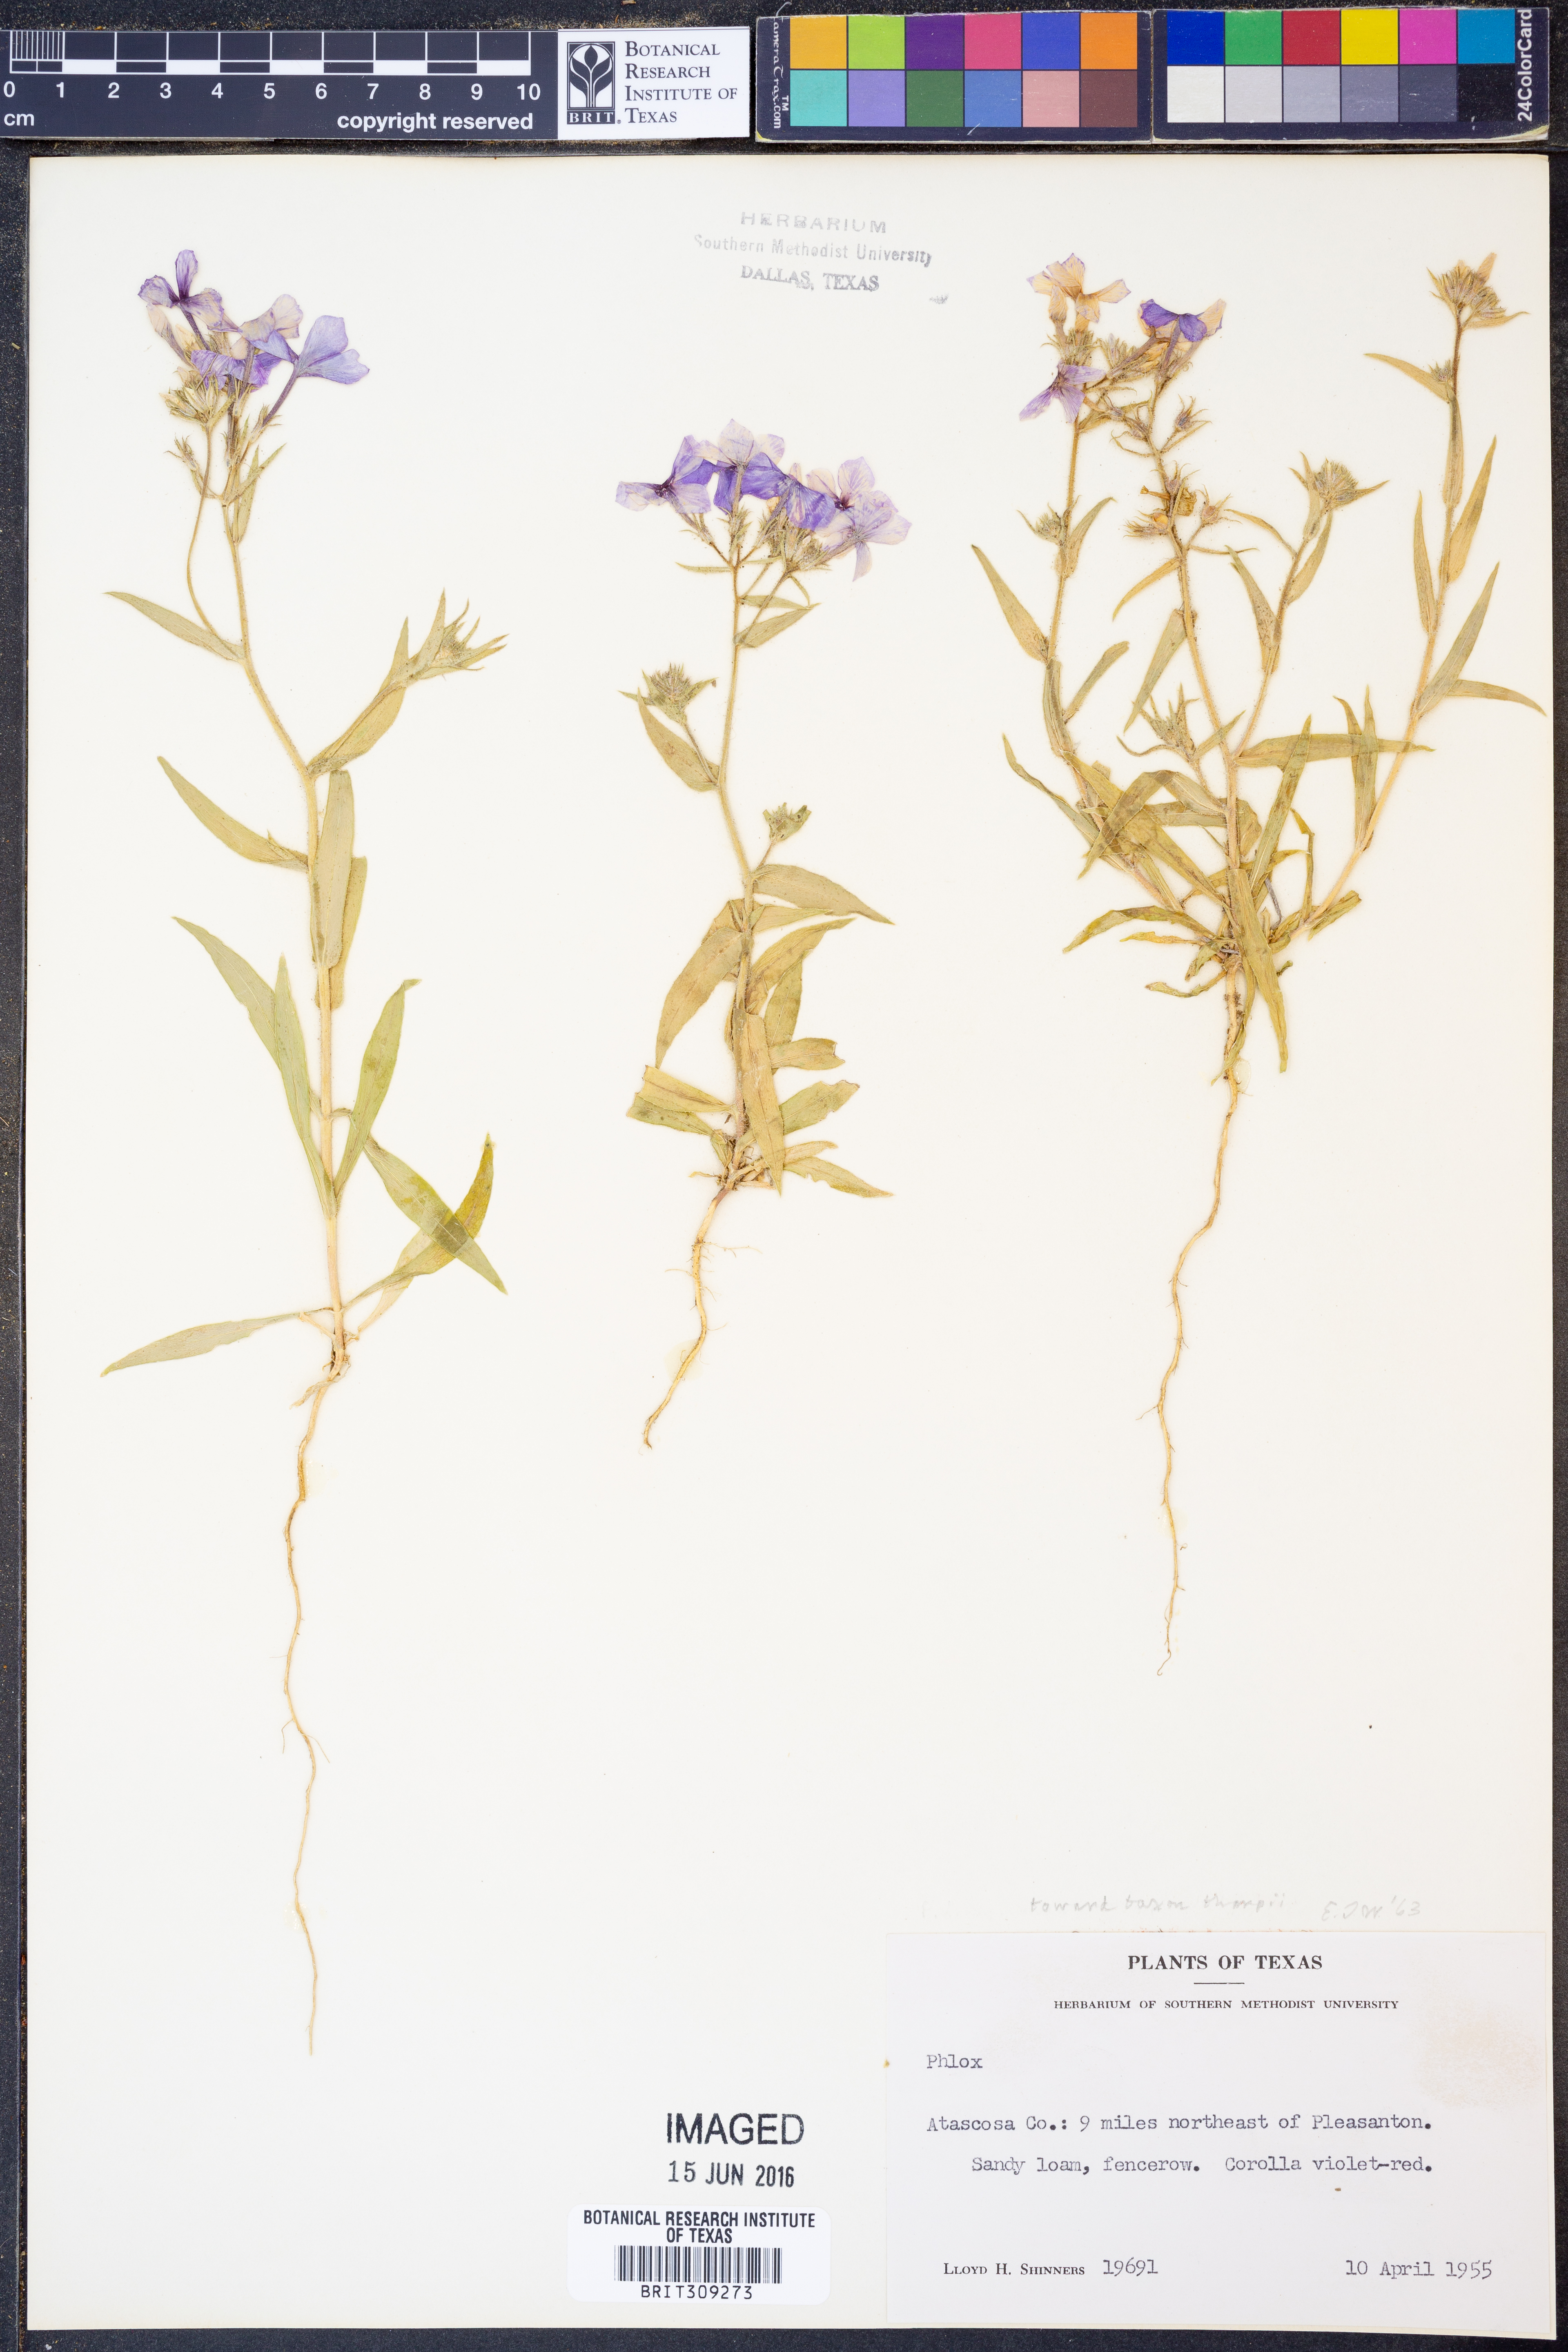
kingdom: Plantae
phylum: Tracheophyta
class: Magnoliopsida
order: Ericales
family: Polemoniaceae
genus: Phlox
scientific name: Phlox drummondii
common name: Drummond's phlox
